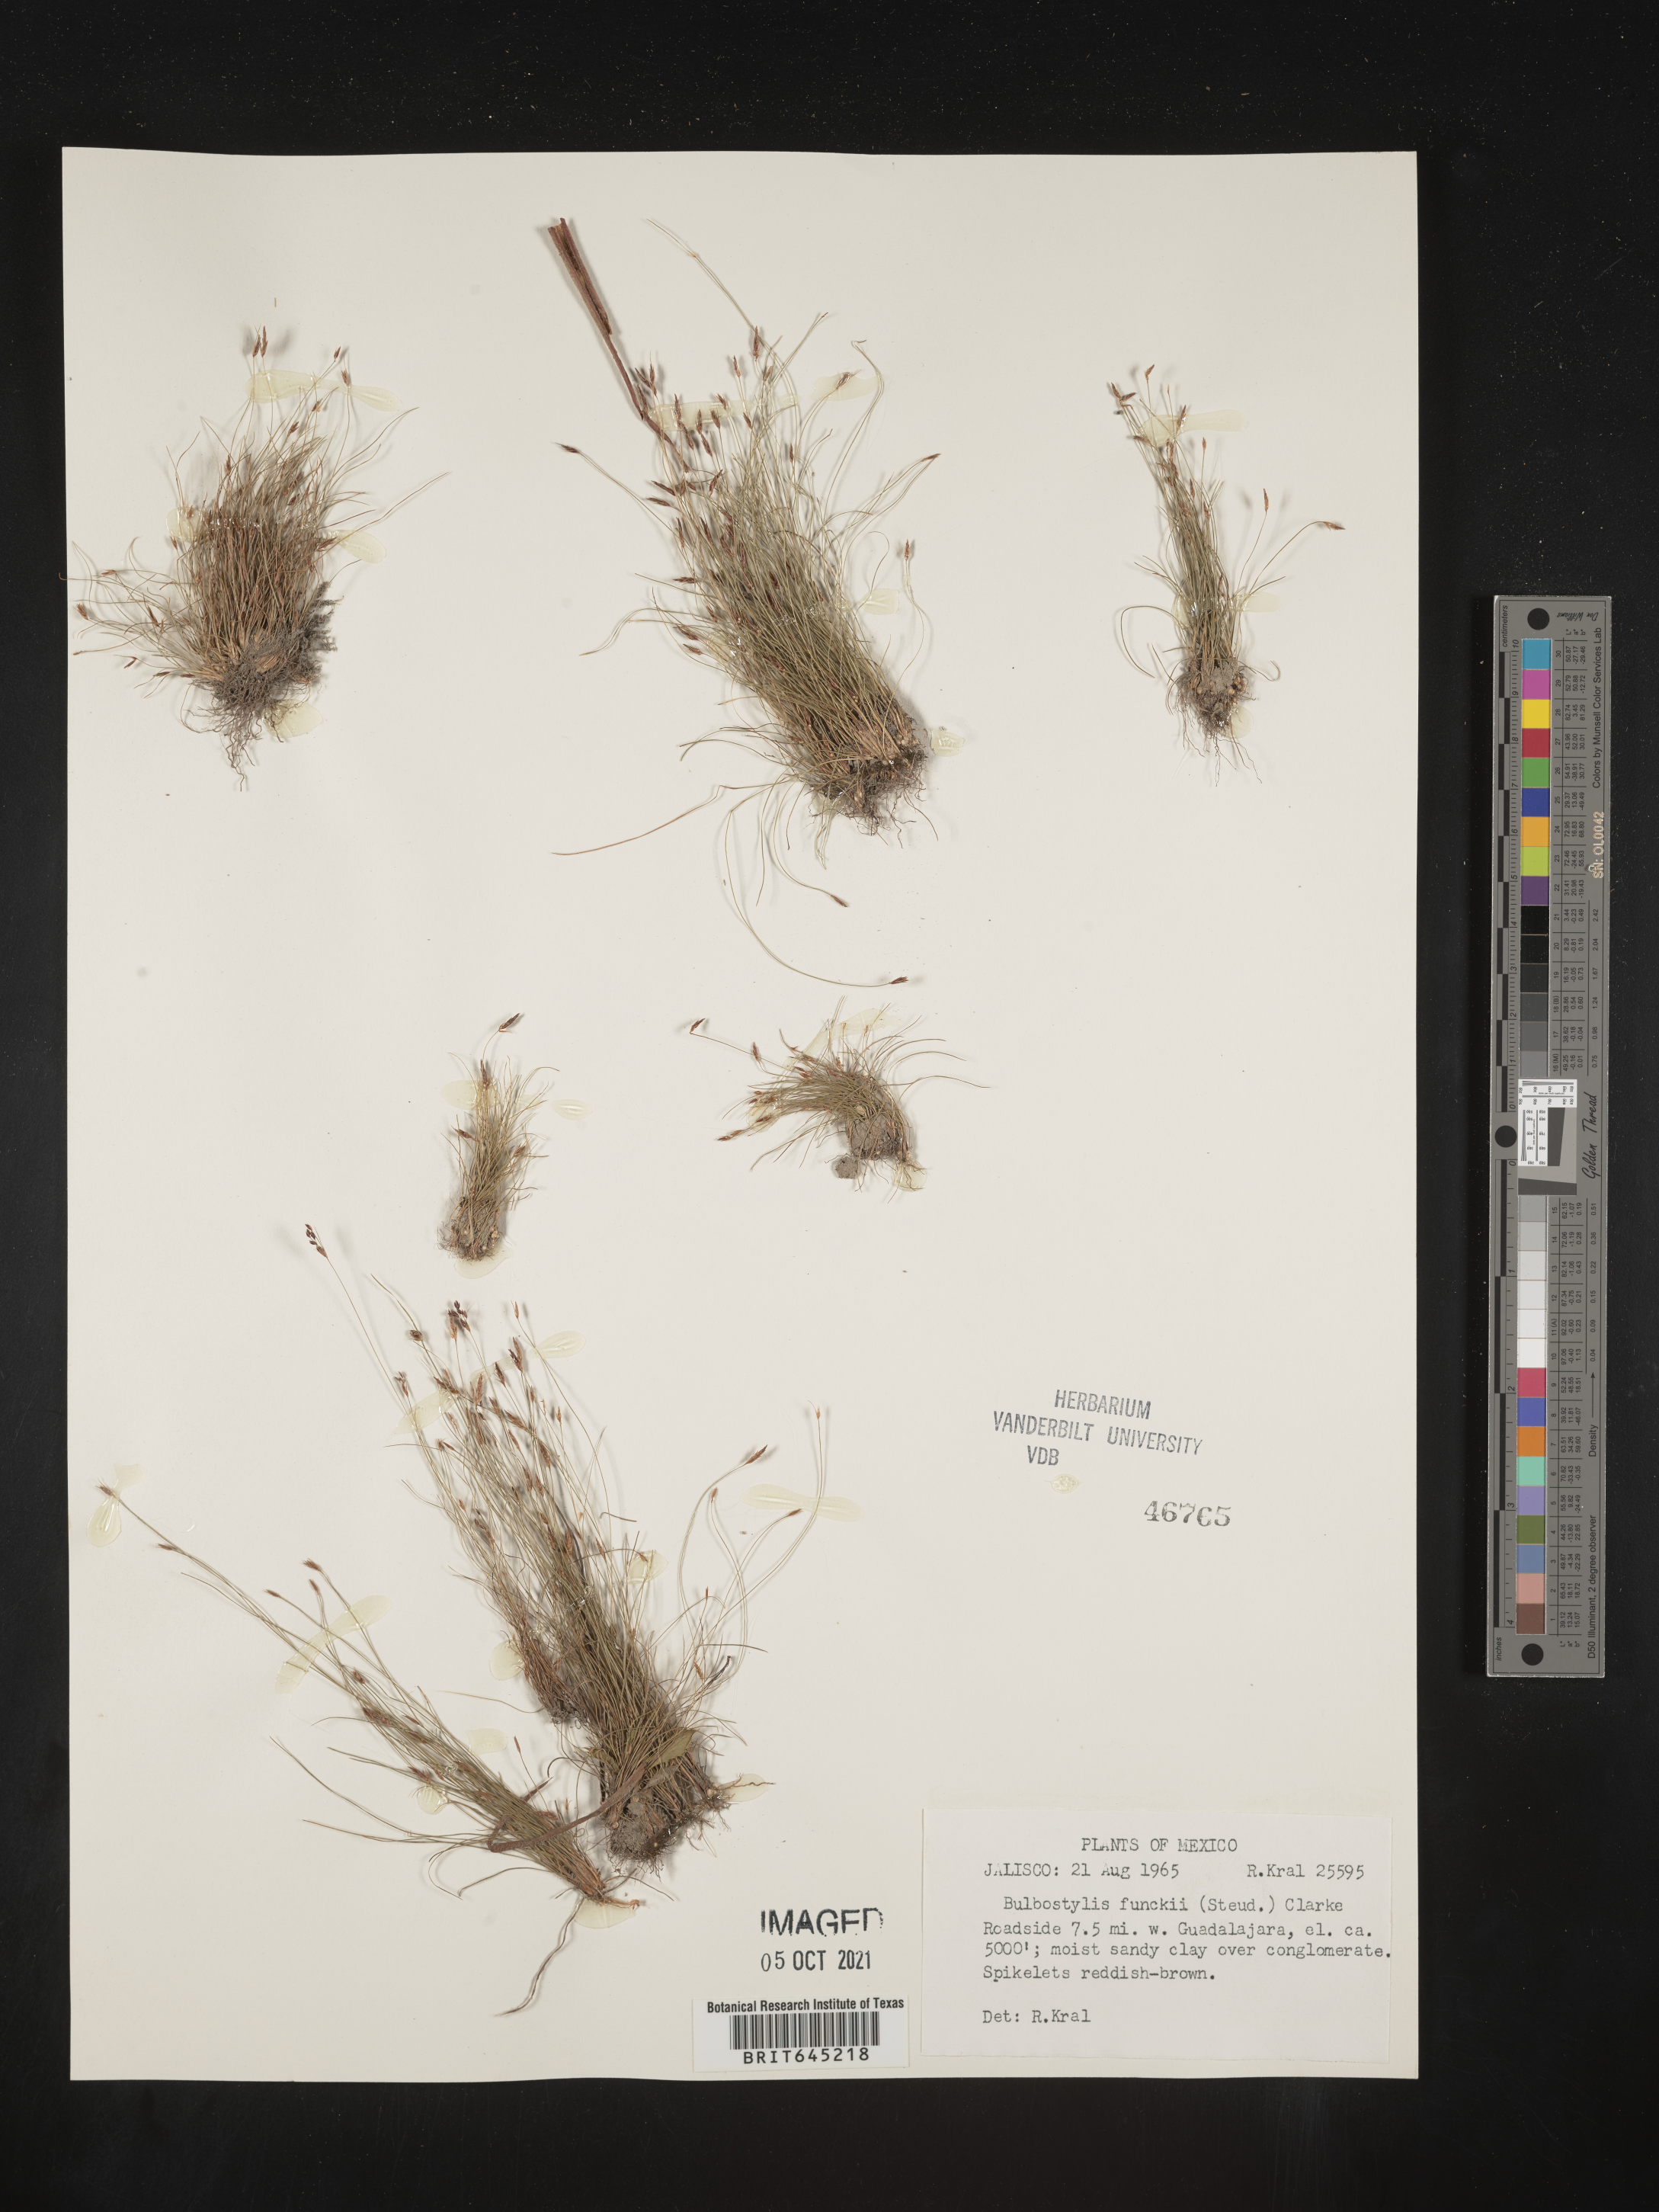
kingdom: Plantae
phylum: Tracheophyta
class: Liliopsida
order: Poales
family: Cyperaceae
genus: Bulbostylis
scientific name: Bulbostylis funckii
